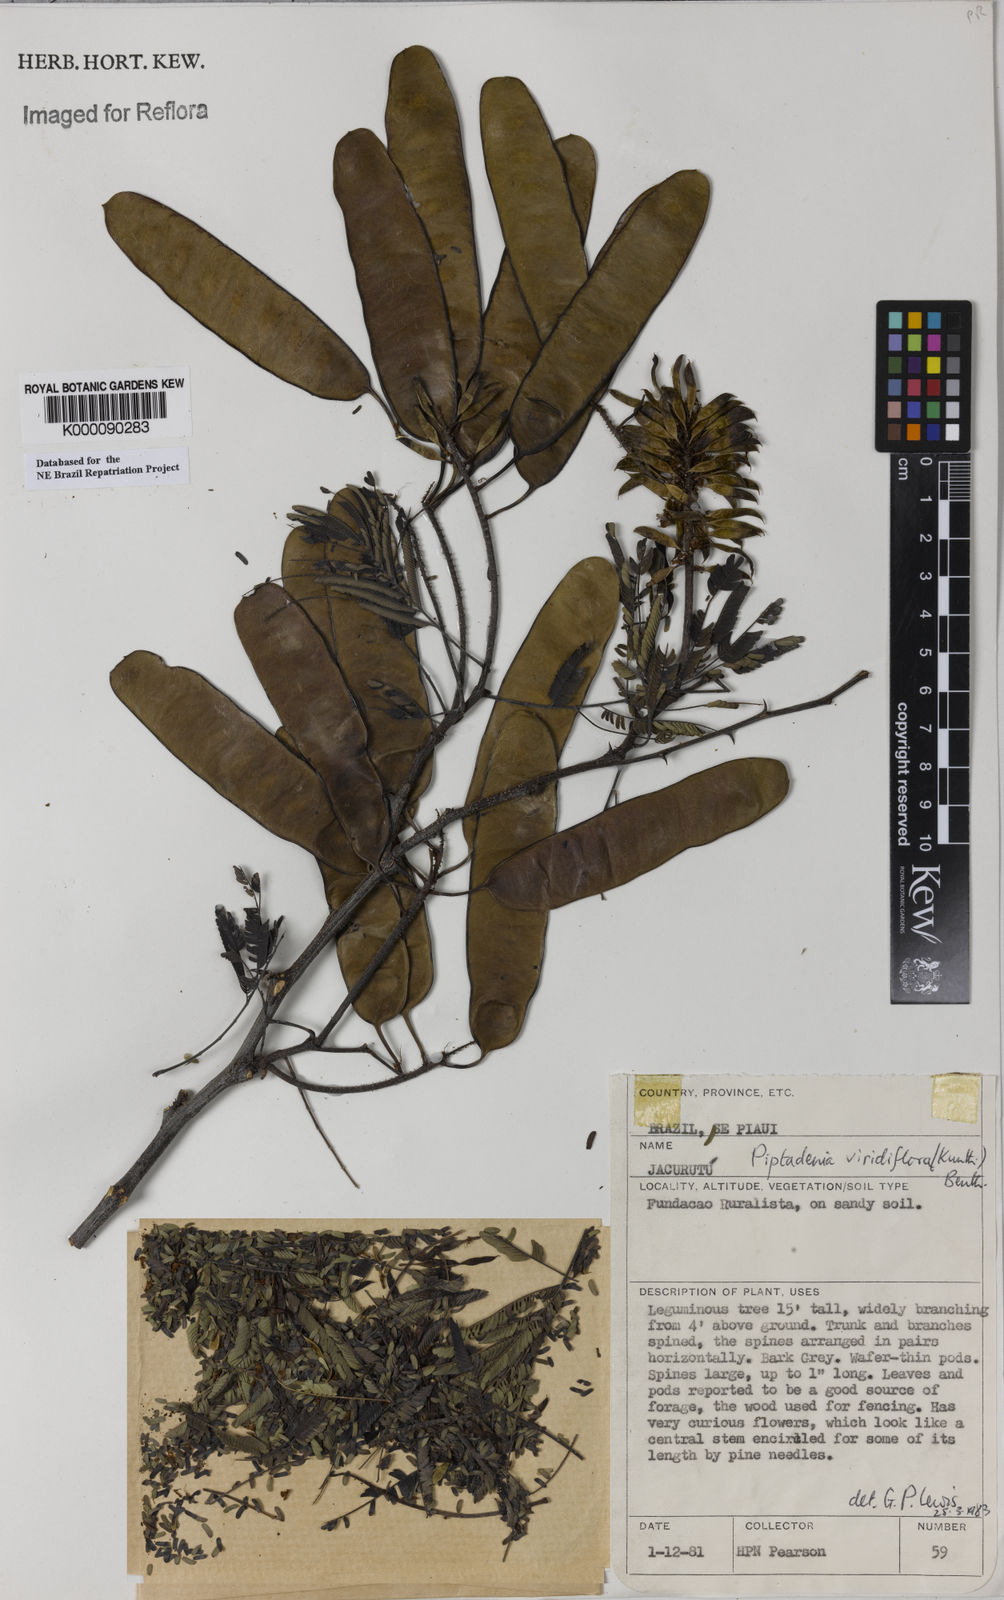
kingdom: Plantae
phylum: Tracheophyta
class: Magnoliopsida
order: Fabales
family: Fabaceae
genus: Lachesiodendron
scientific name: Lachesiodendron viridiflorum
